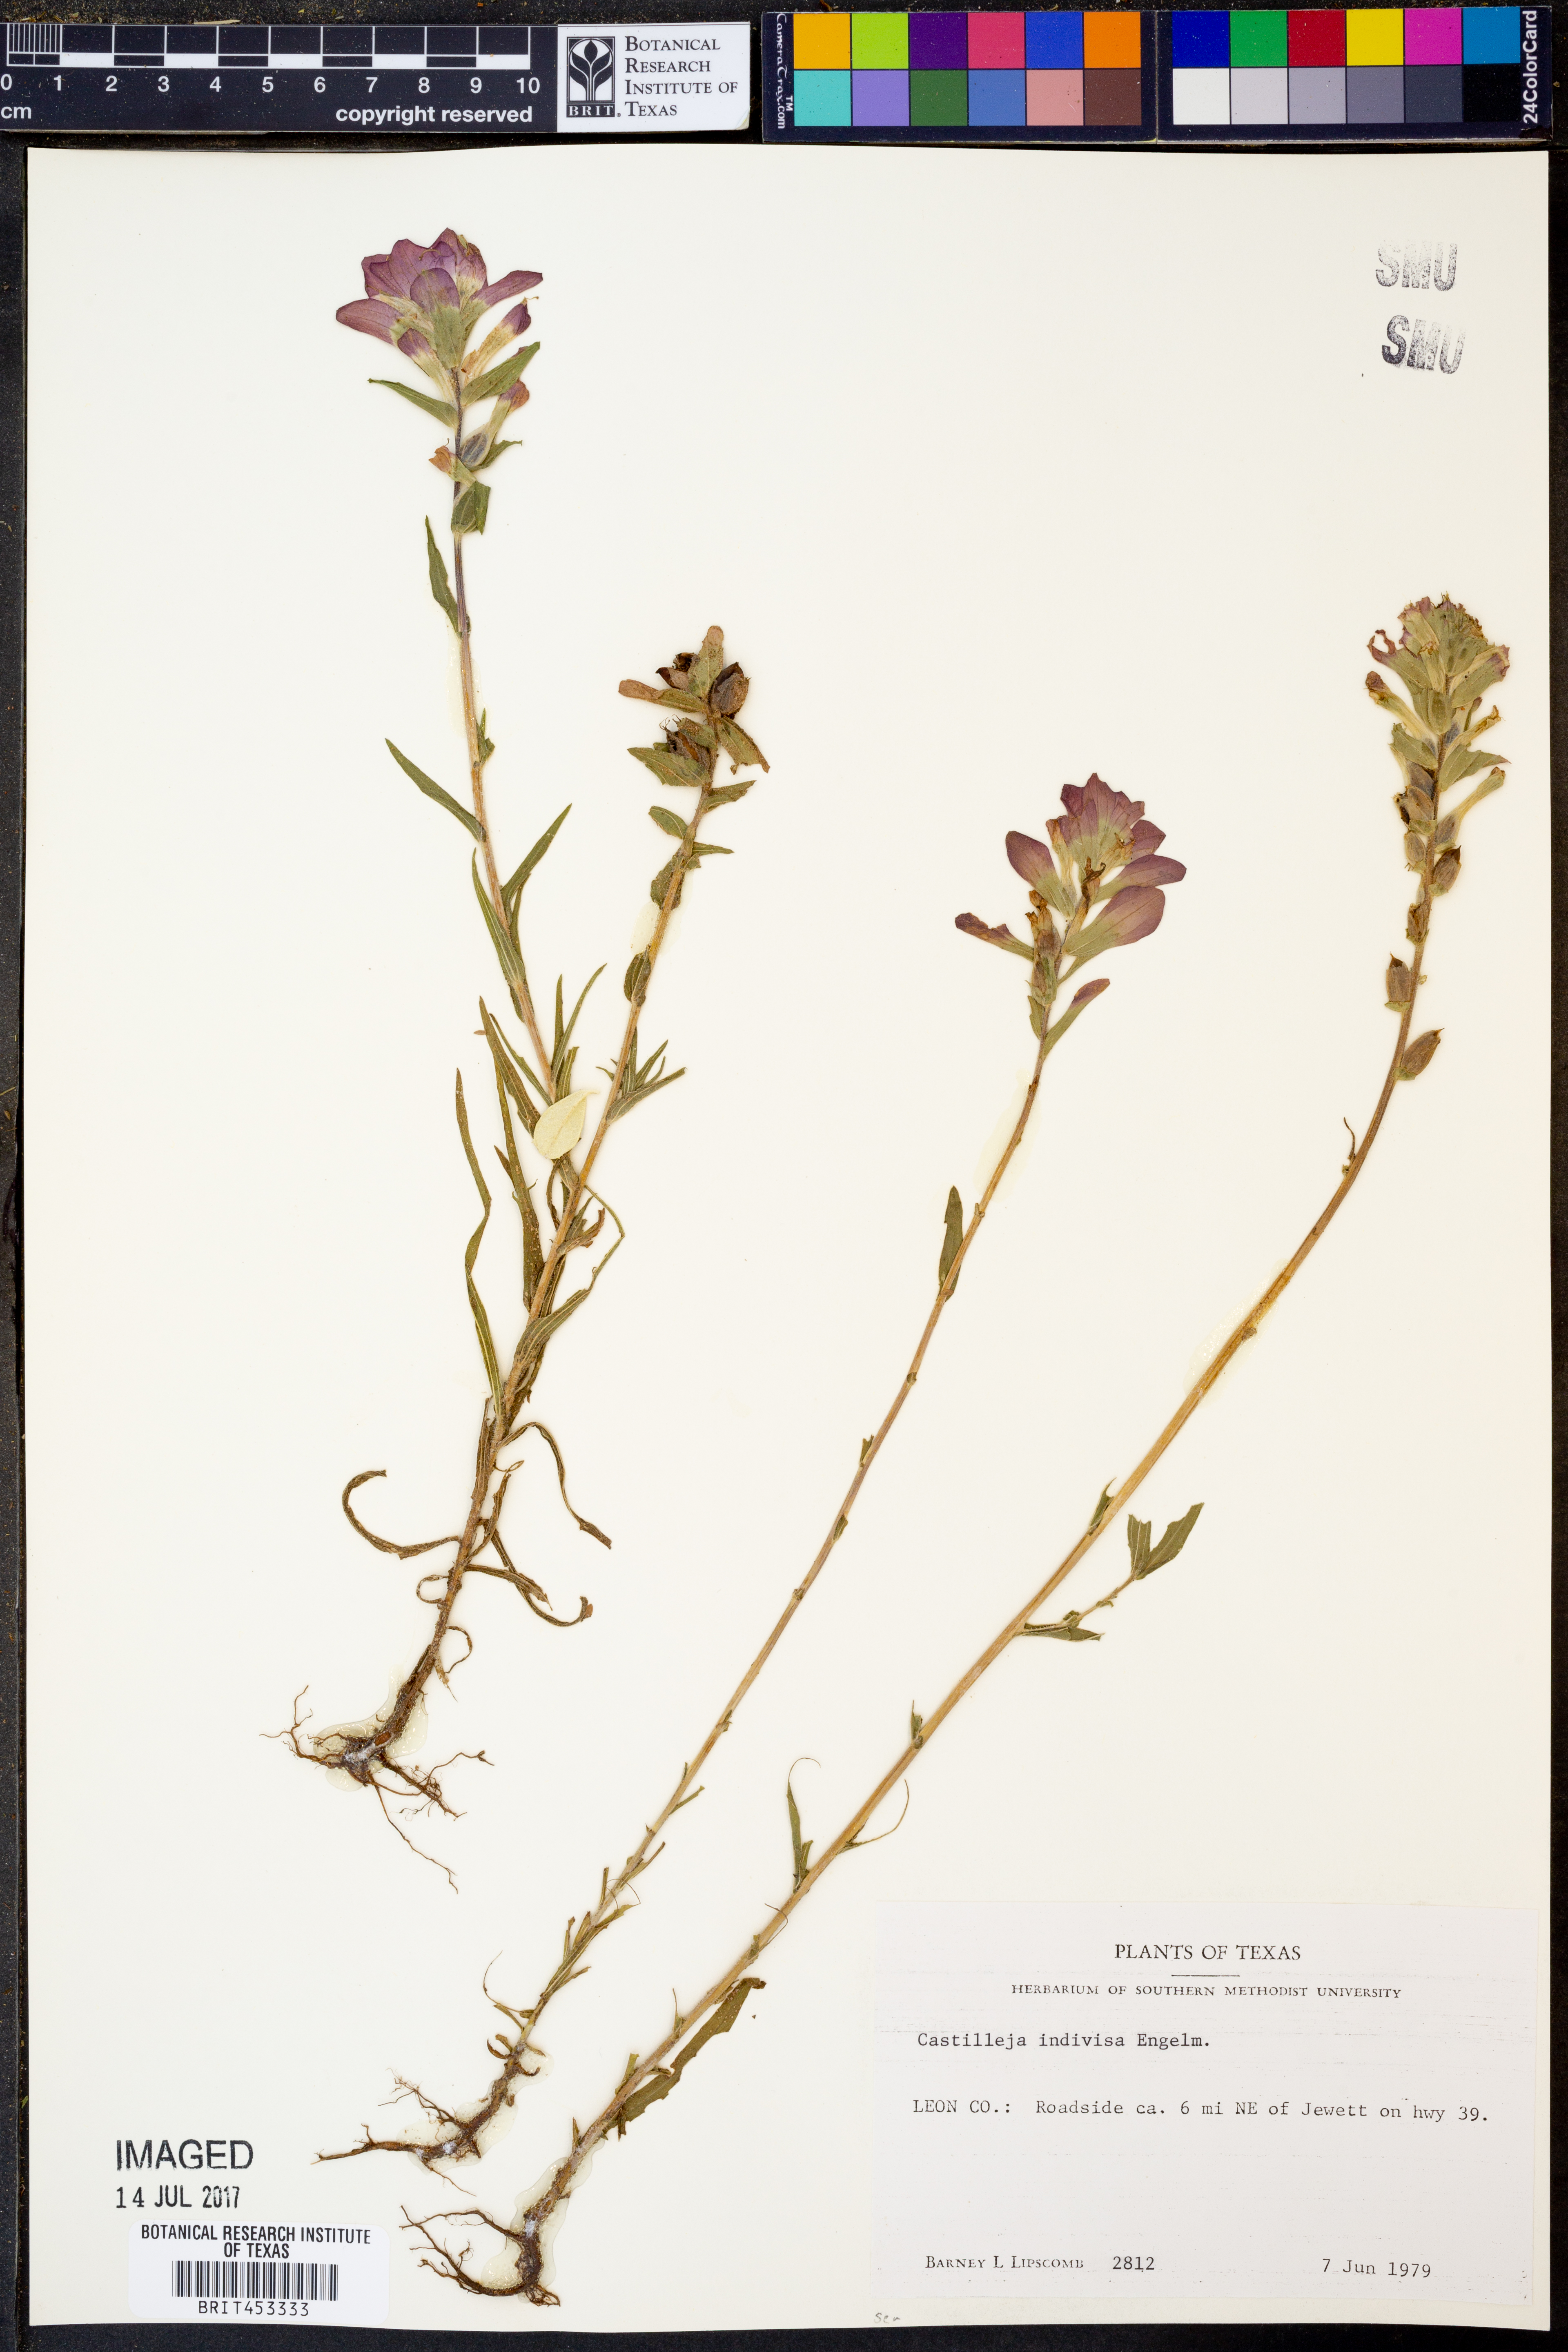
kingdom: Plantae
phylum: Tracheophyta
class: Magnoliopsida
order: Lamiales
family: Orobanchaceae
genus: Castilleja
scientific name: Castilleja indivisa
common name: Texas paintbrush
